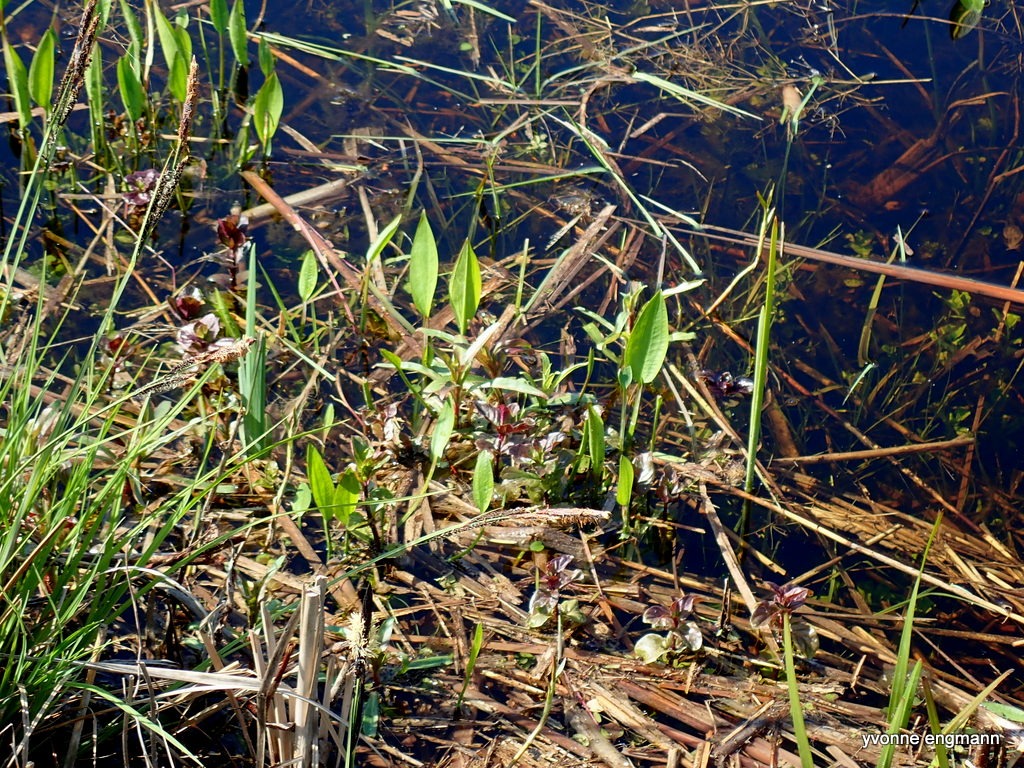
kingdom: Plantae
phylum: Tracheophyta
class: Liliopsida
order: Alismatales
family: Alismataceae
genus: Alisma
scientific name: Alisma plantago-aquatica
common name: Vejbred-skeblad
